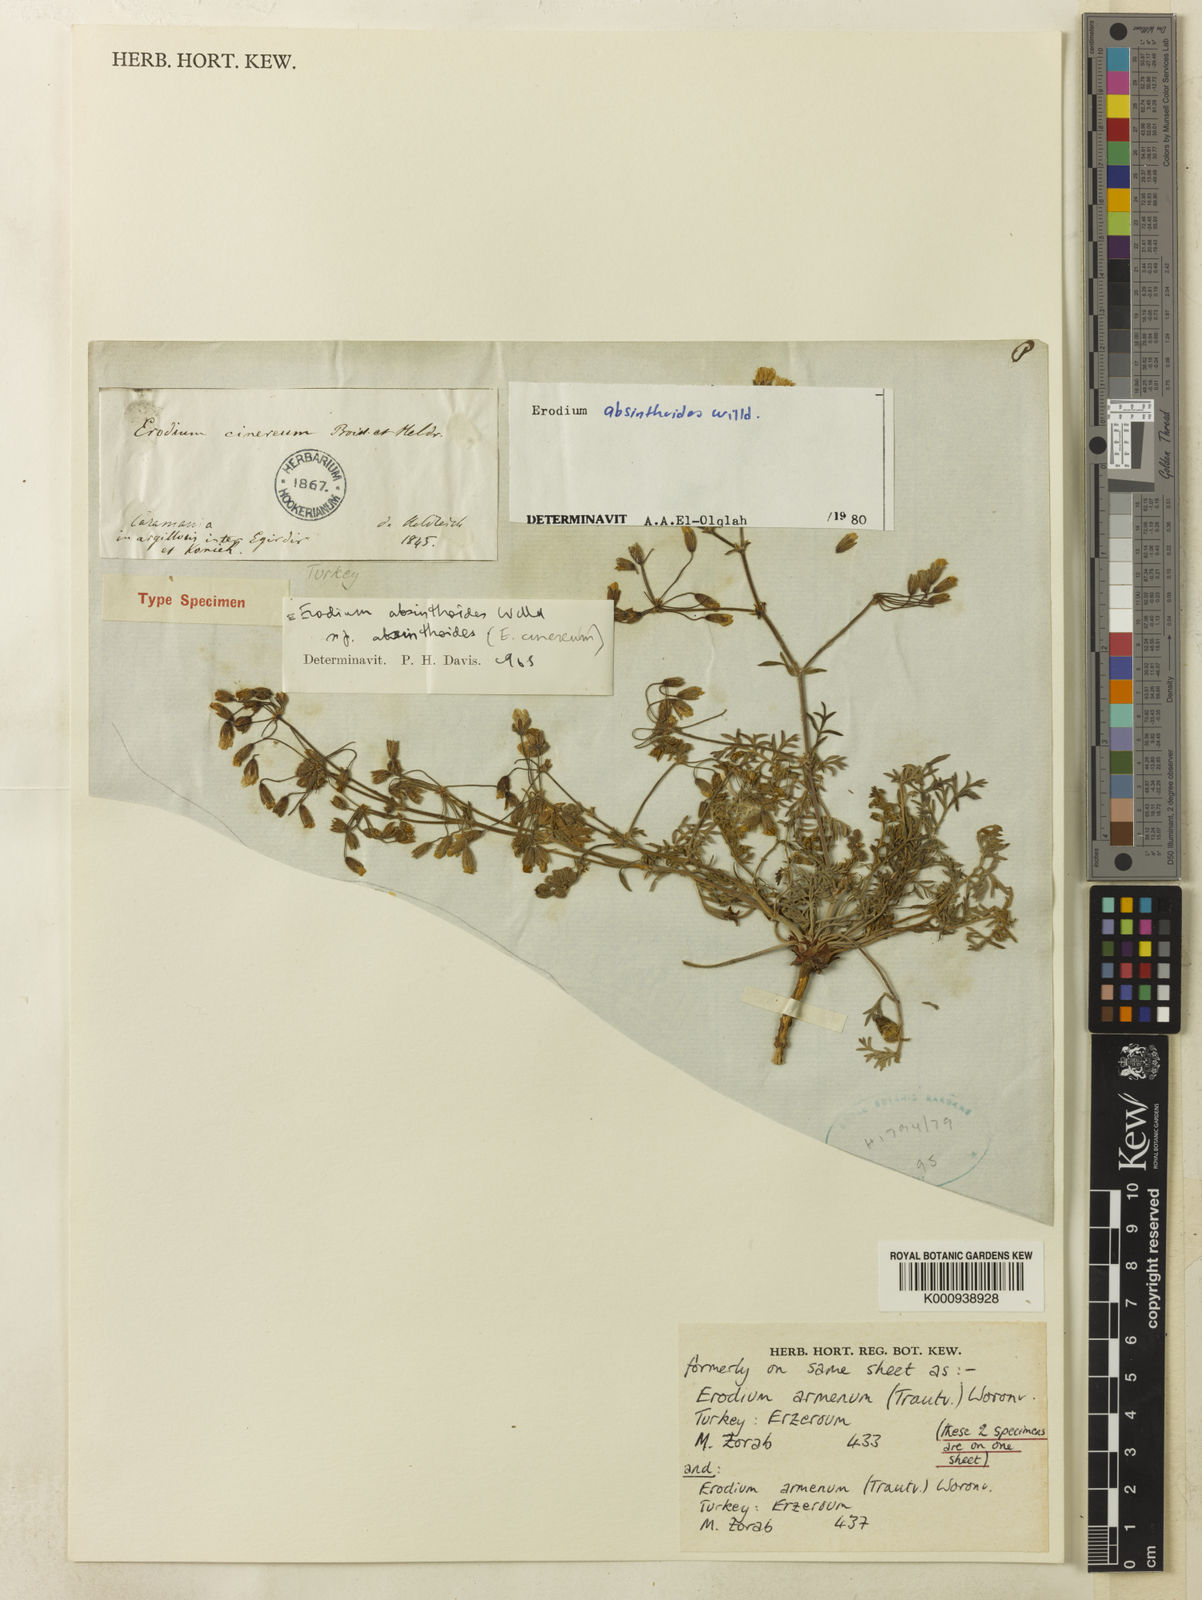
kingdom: Plantae
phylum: Tracheophyta
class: Magnoliopsida
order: Geraniales
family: Geraniaceae
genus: Erodium
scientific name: Erodium absinthoides
